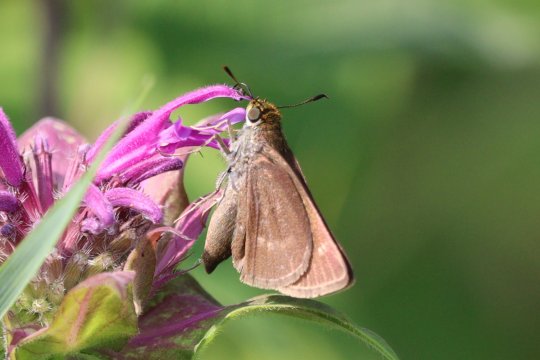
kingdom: Animalia
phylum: Arthropoda
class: Insecta
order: Lepidoptera
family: Hesperiidae
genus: Polites
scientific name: Polites egeremet
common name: Northern Broken-Dash
